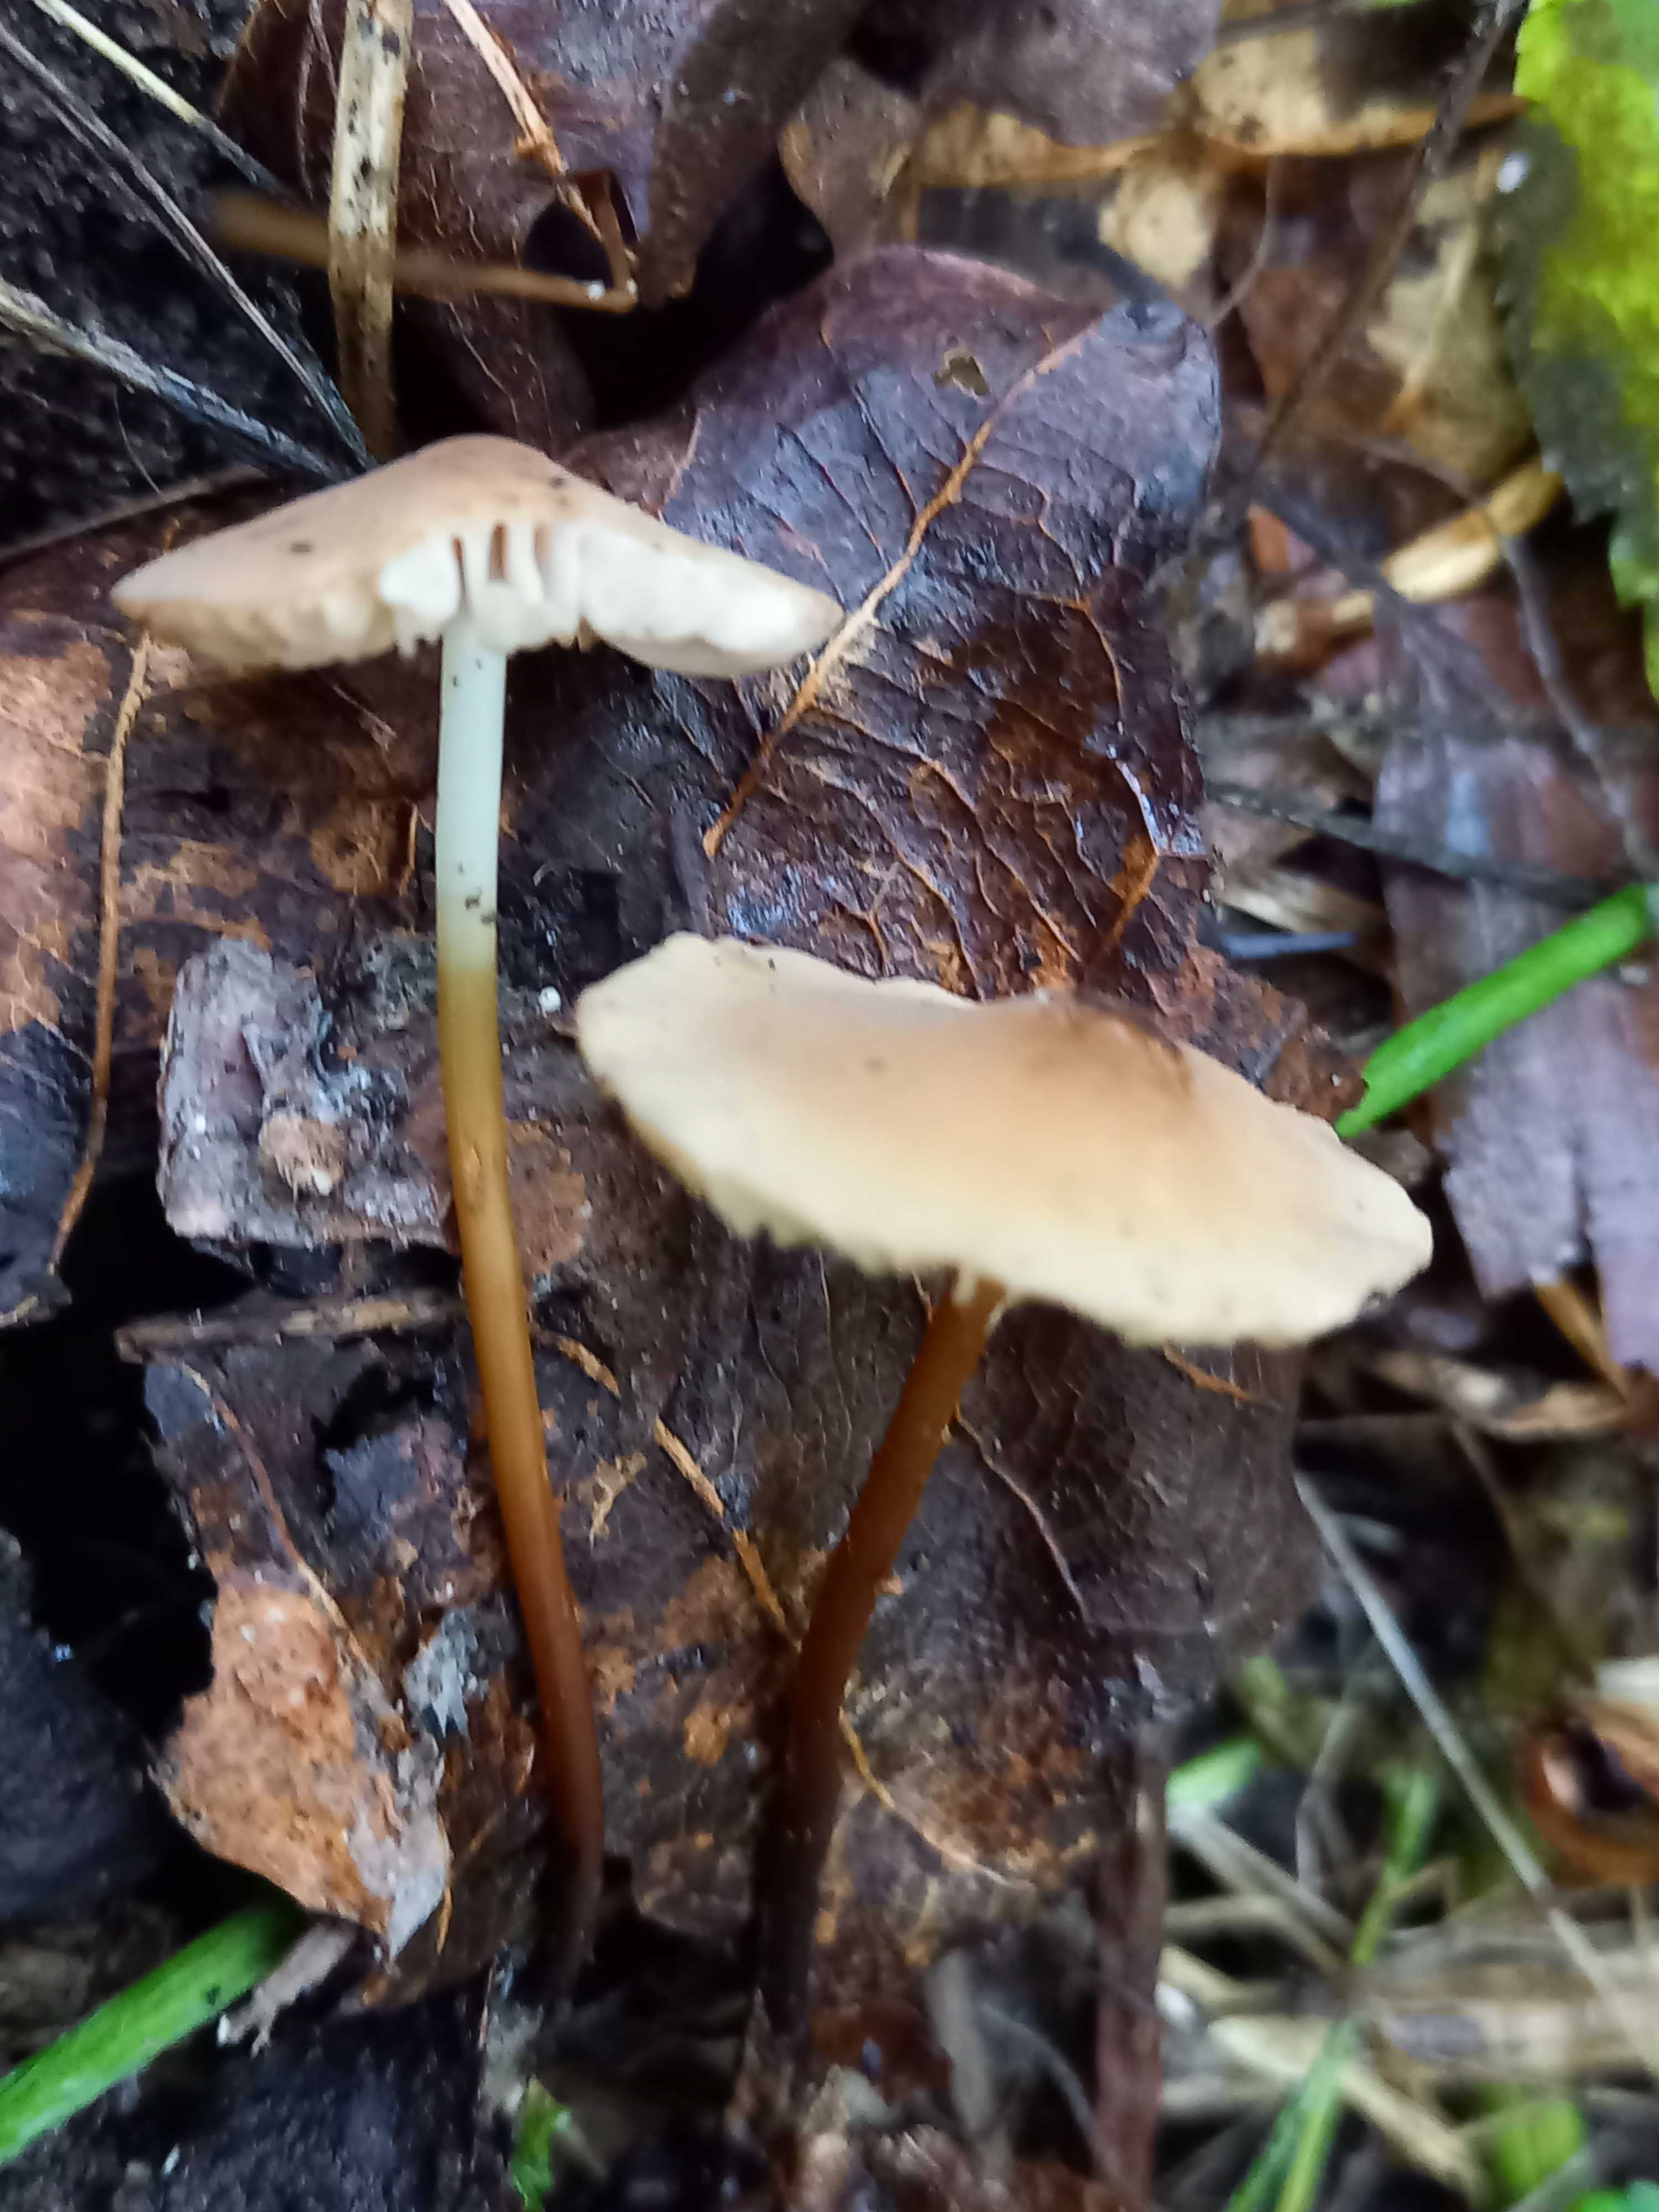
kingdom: Fungi
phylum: Basidiomycota
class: Agaricomycetes
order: Agaricales
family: Marasmiaceae
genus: Marasmius
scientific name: Marasmius cohaerens
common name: hornstokket bruskhat
